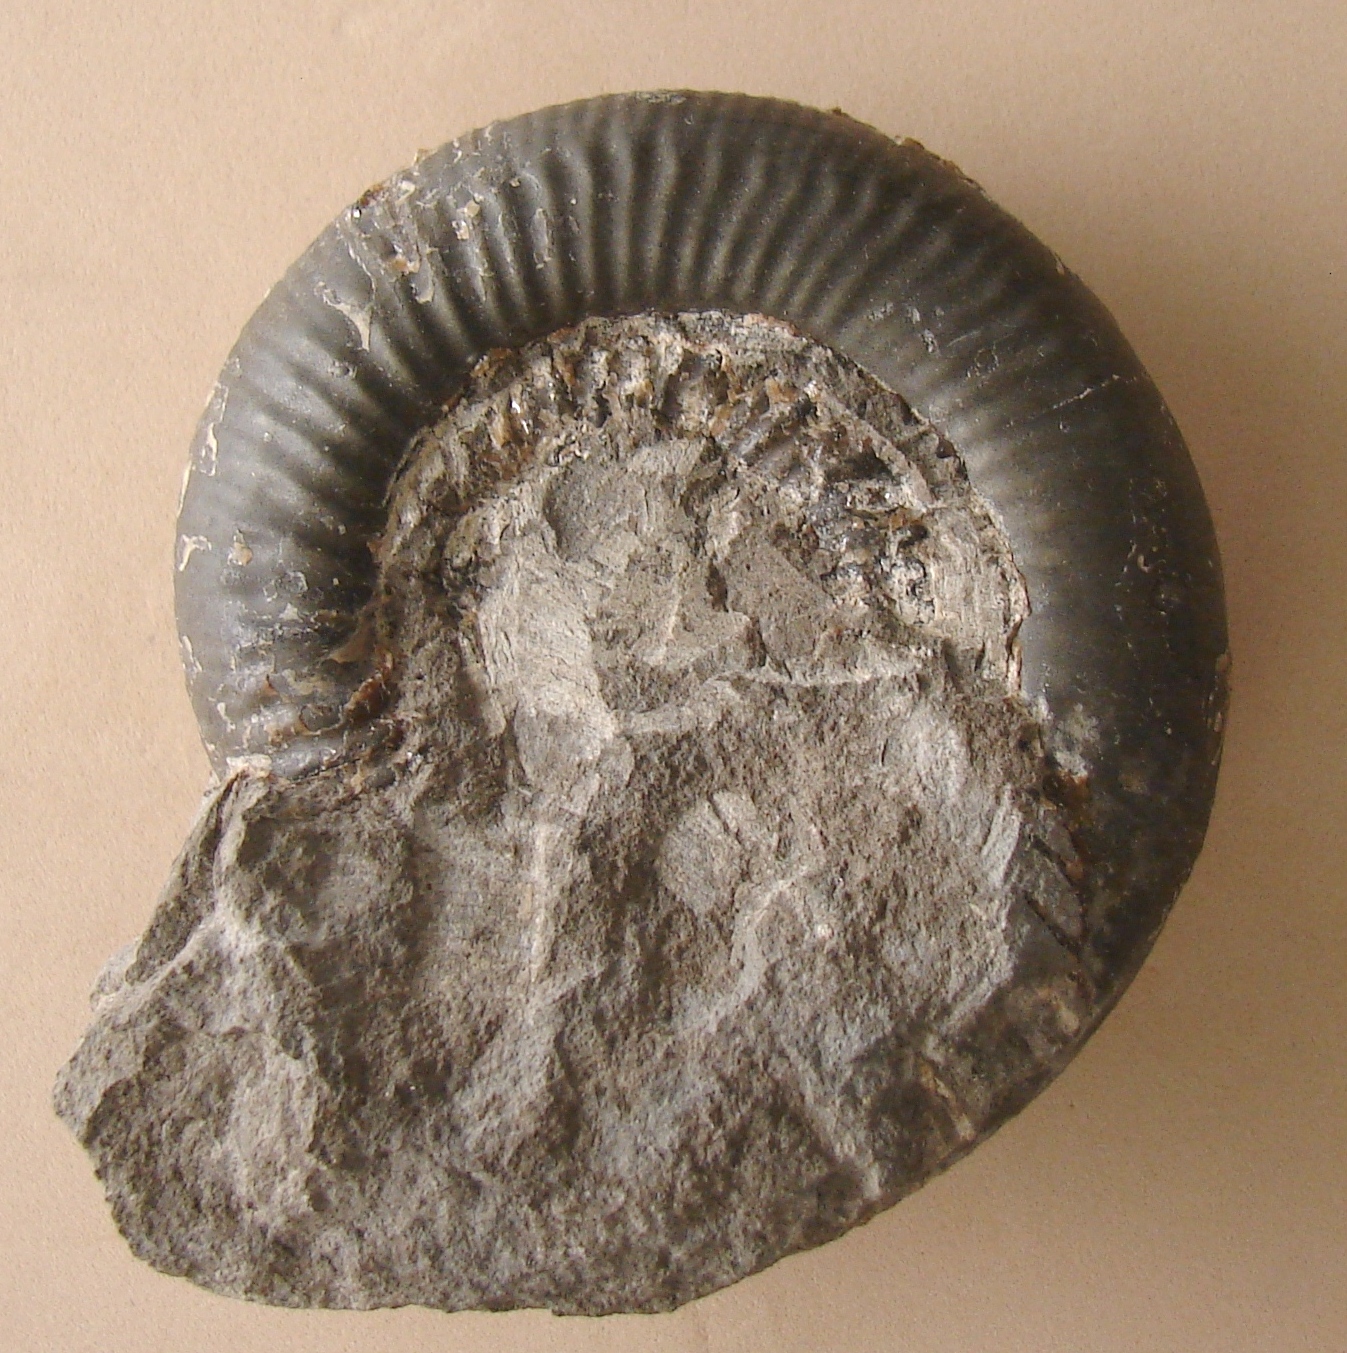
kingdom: Animalia
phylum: Mollusca
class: Cephalopoda
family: Dactylioceratidae
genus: Dactylioceras
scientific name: Dactylioceras commune
